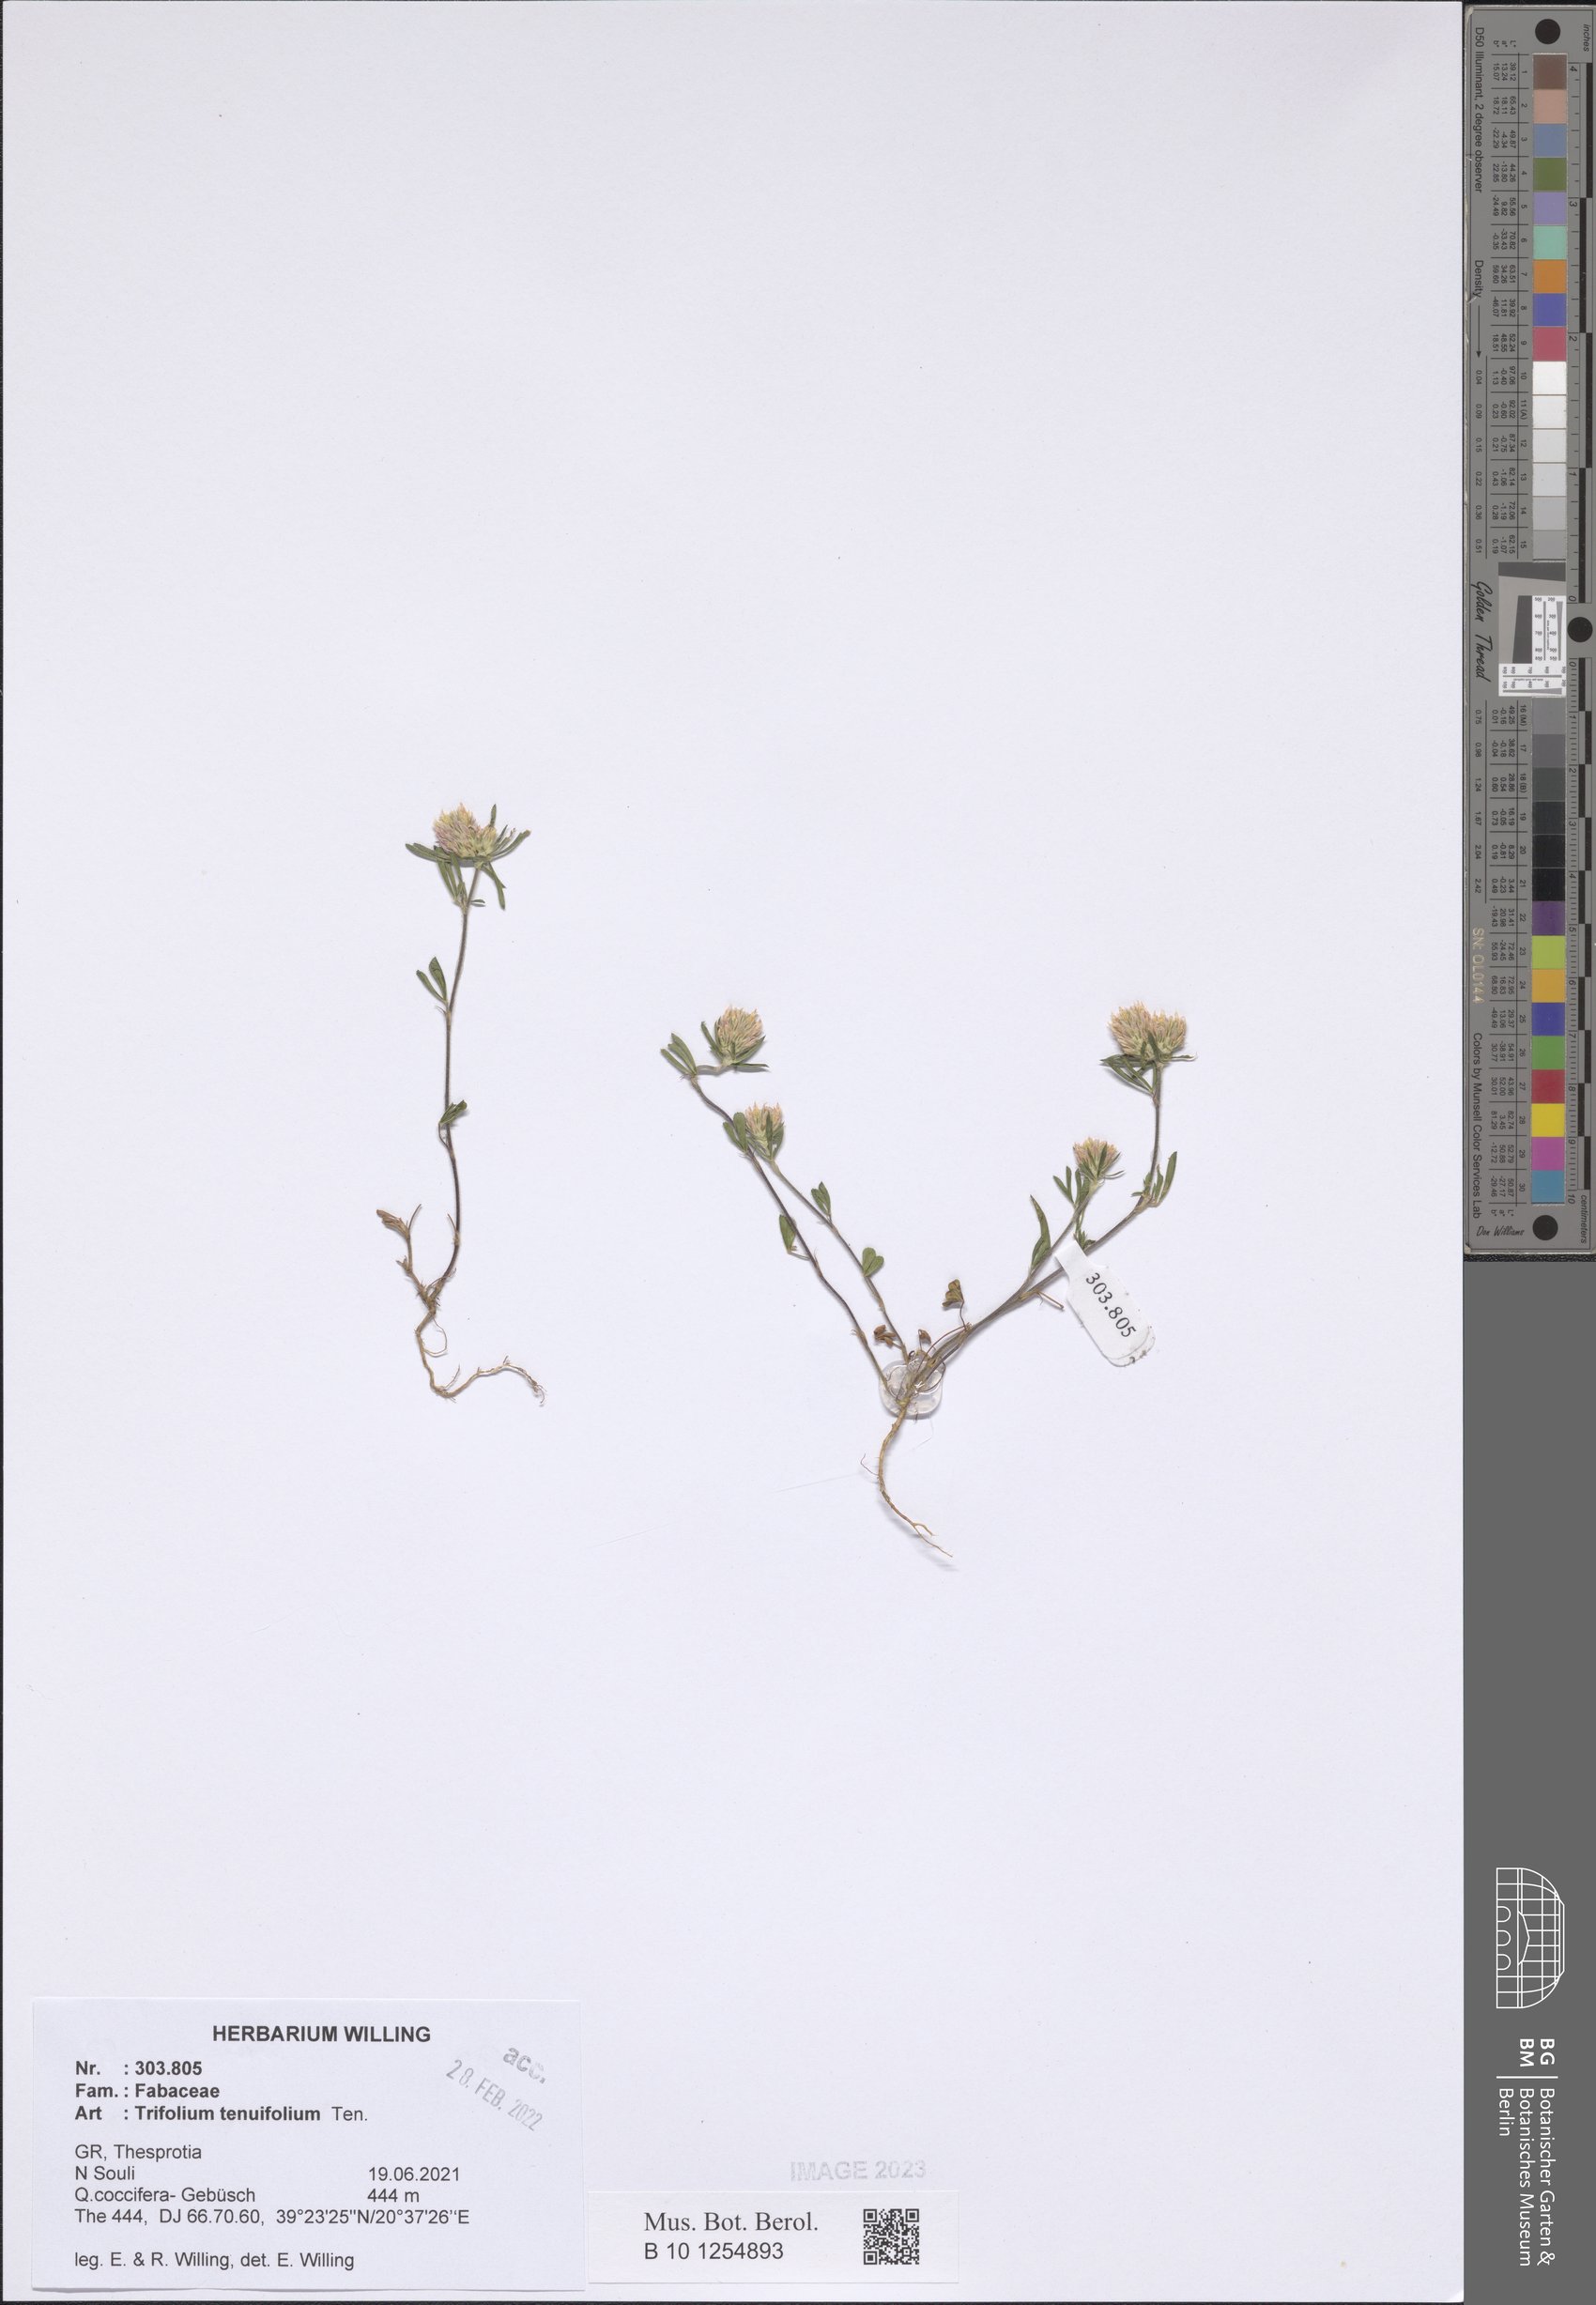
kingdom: Plantae
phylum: Tracheophyta
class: Magnoliopsida
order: Fabales
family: Fabaceae
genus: Trifolium
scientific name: Trifolium tenuifolium
